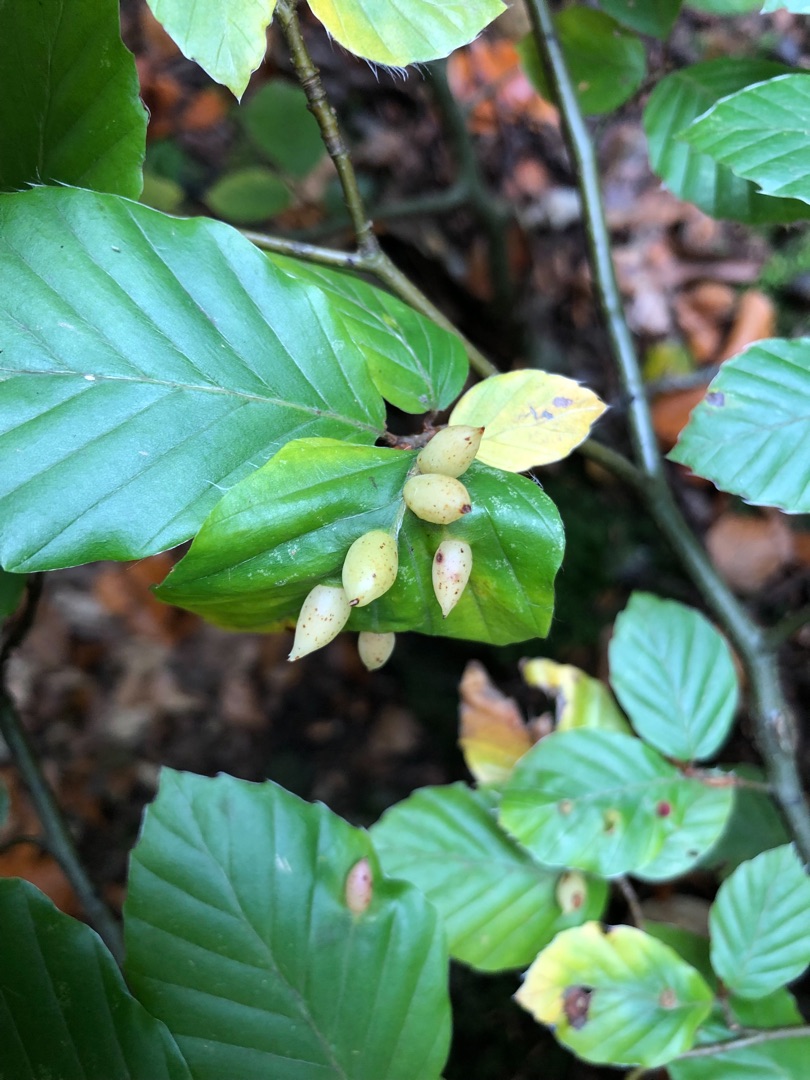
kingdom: Animalia
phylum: Arthropoda
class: Insecta
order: Diptera
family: Cecidomyiidae
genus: Mikiola
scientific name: Mikiola fagi
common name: Bøgegalmyg
